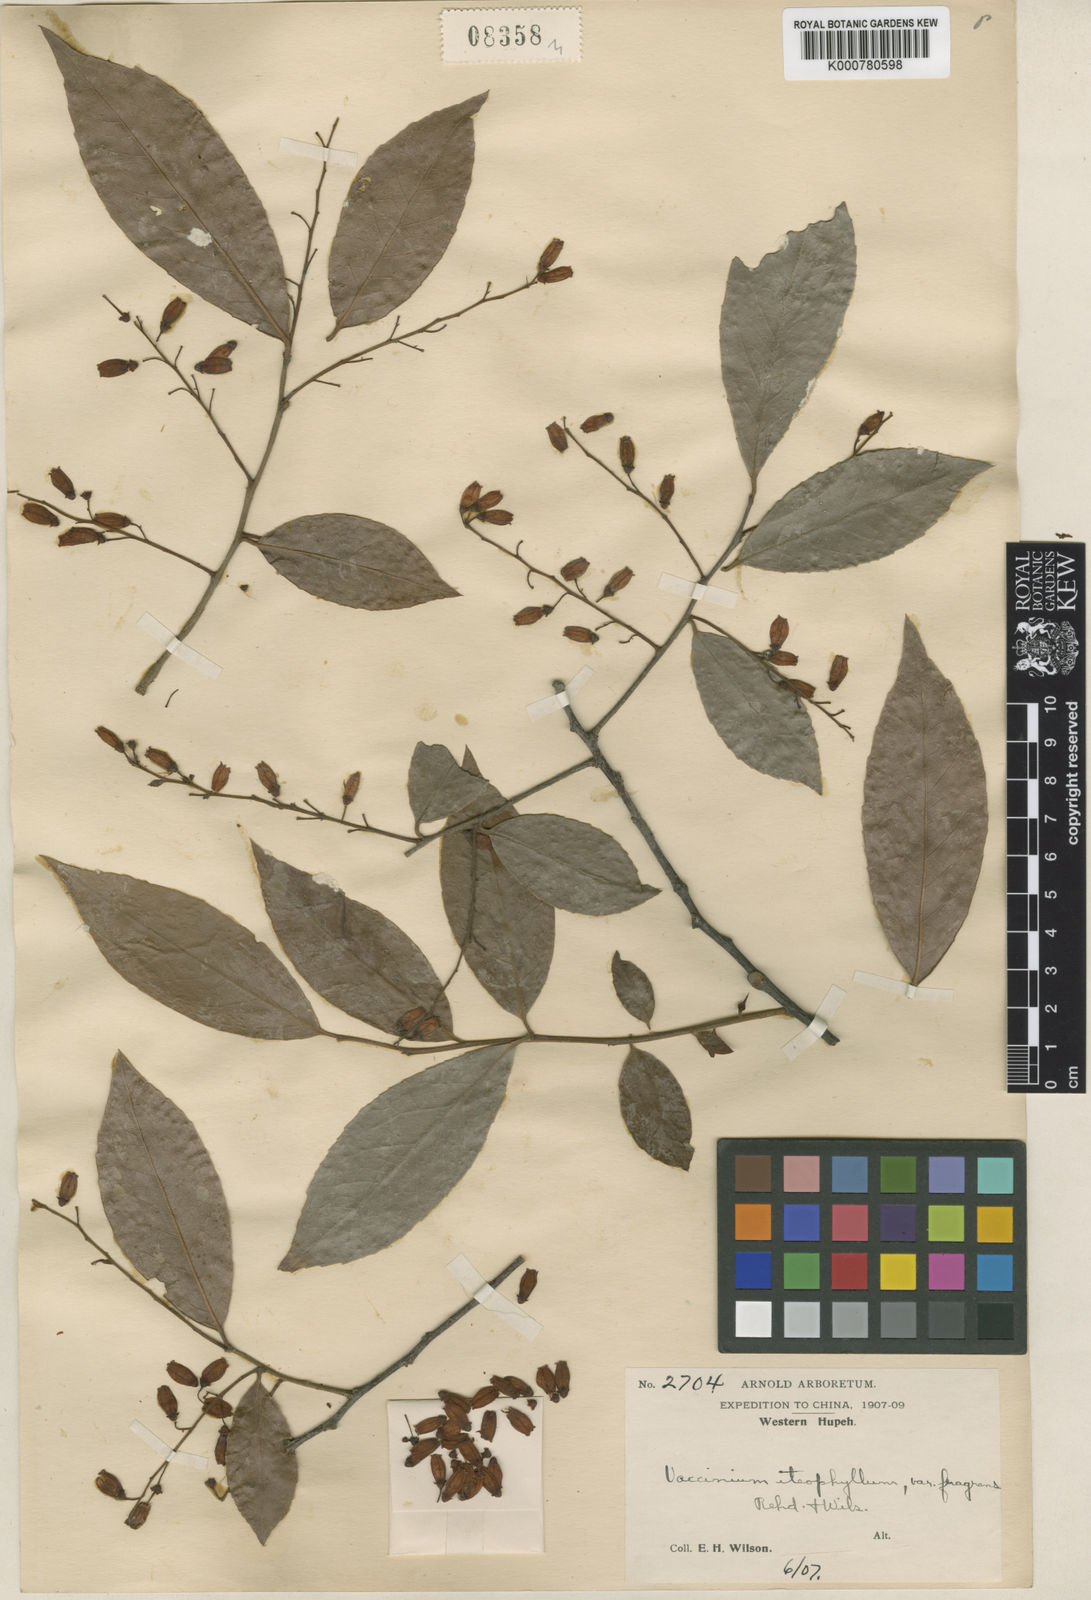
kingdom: Plantae
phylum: Tracheophyta
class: Magnoliopsida
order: Ericales
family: Ericaceae
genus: Vaccinium
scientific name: Vaccinium iteophyllum
